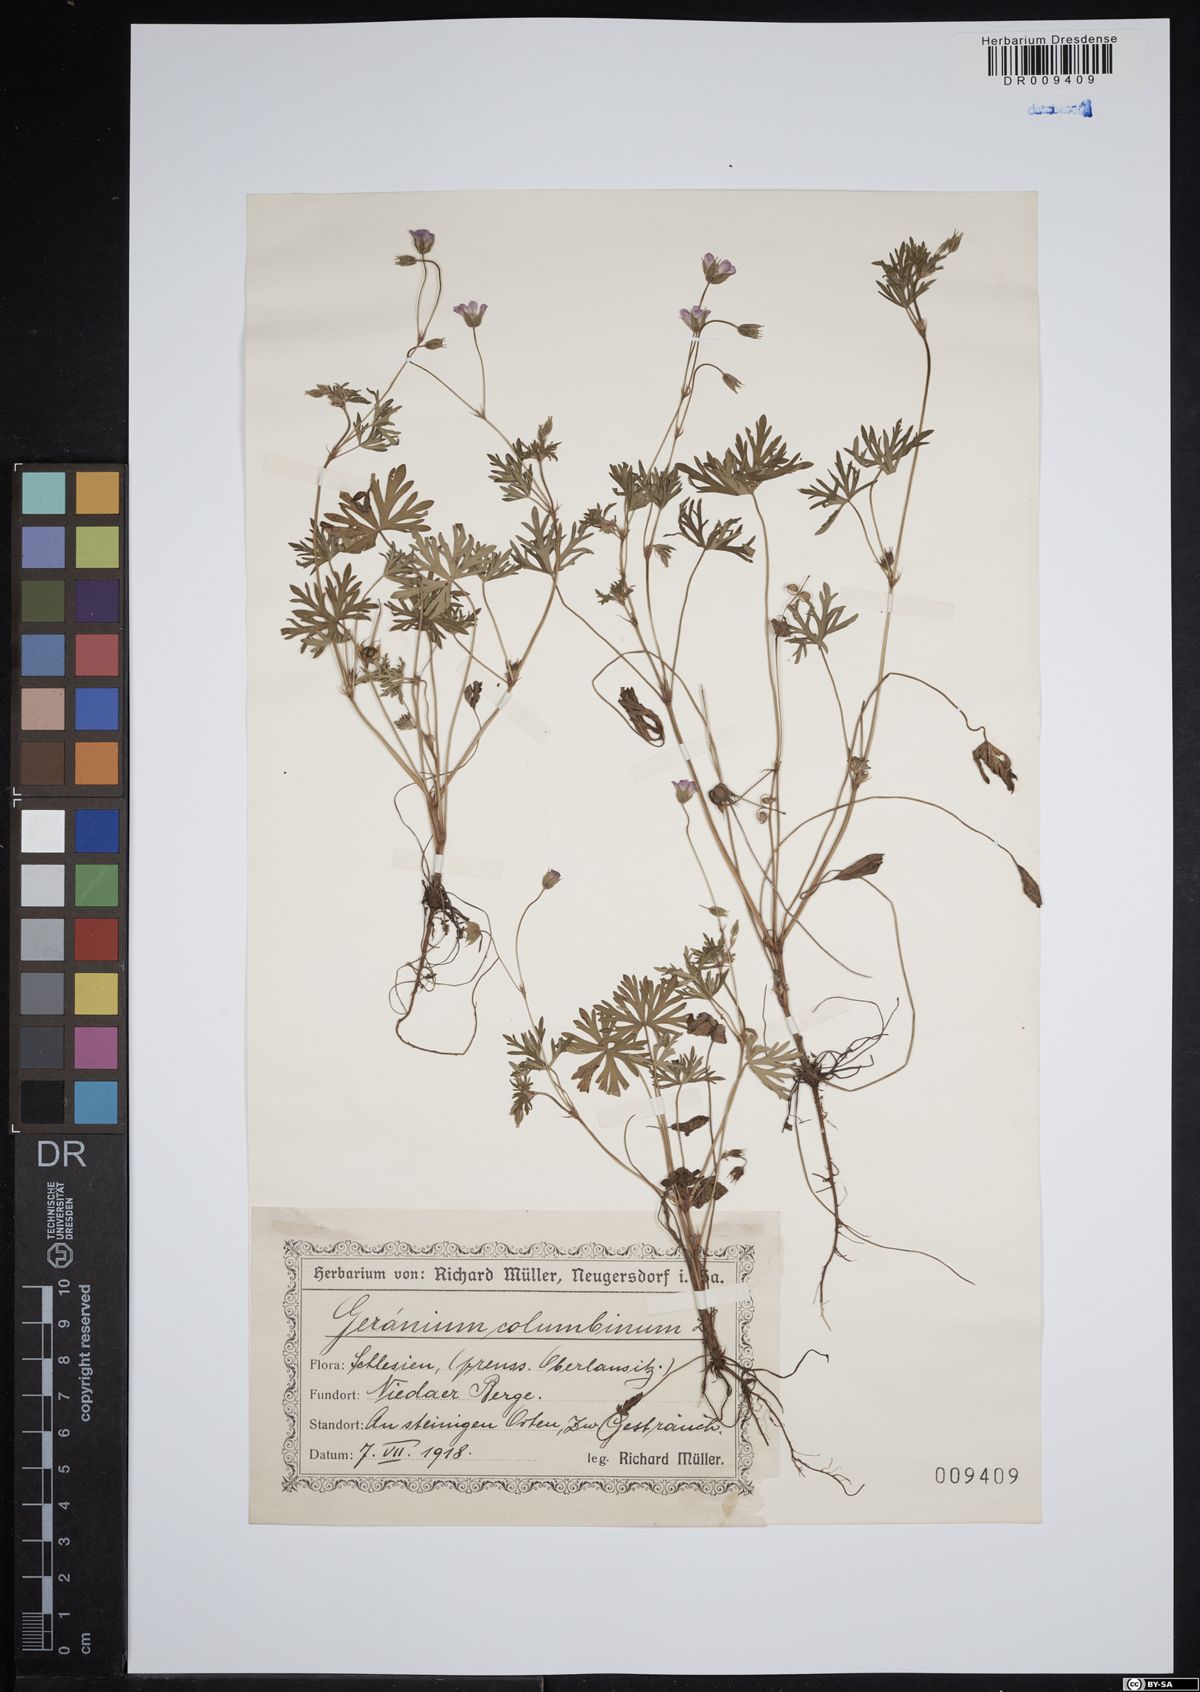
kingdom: Plantae
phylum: Tracheophyta
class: Magnoliopsida
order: Geraniales
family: Geraniaceae
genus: Geranium
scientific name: Geranium columbinum
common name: Long-stalked crane's-bill
